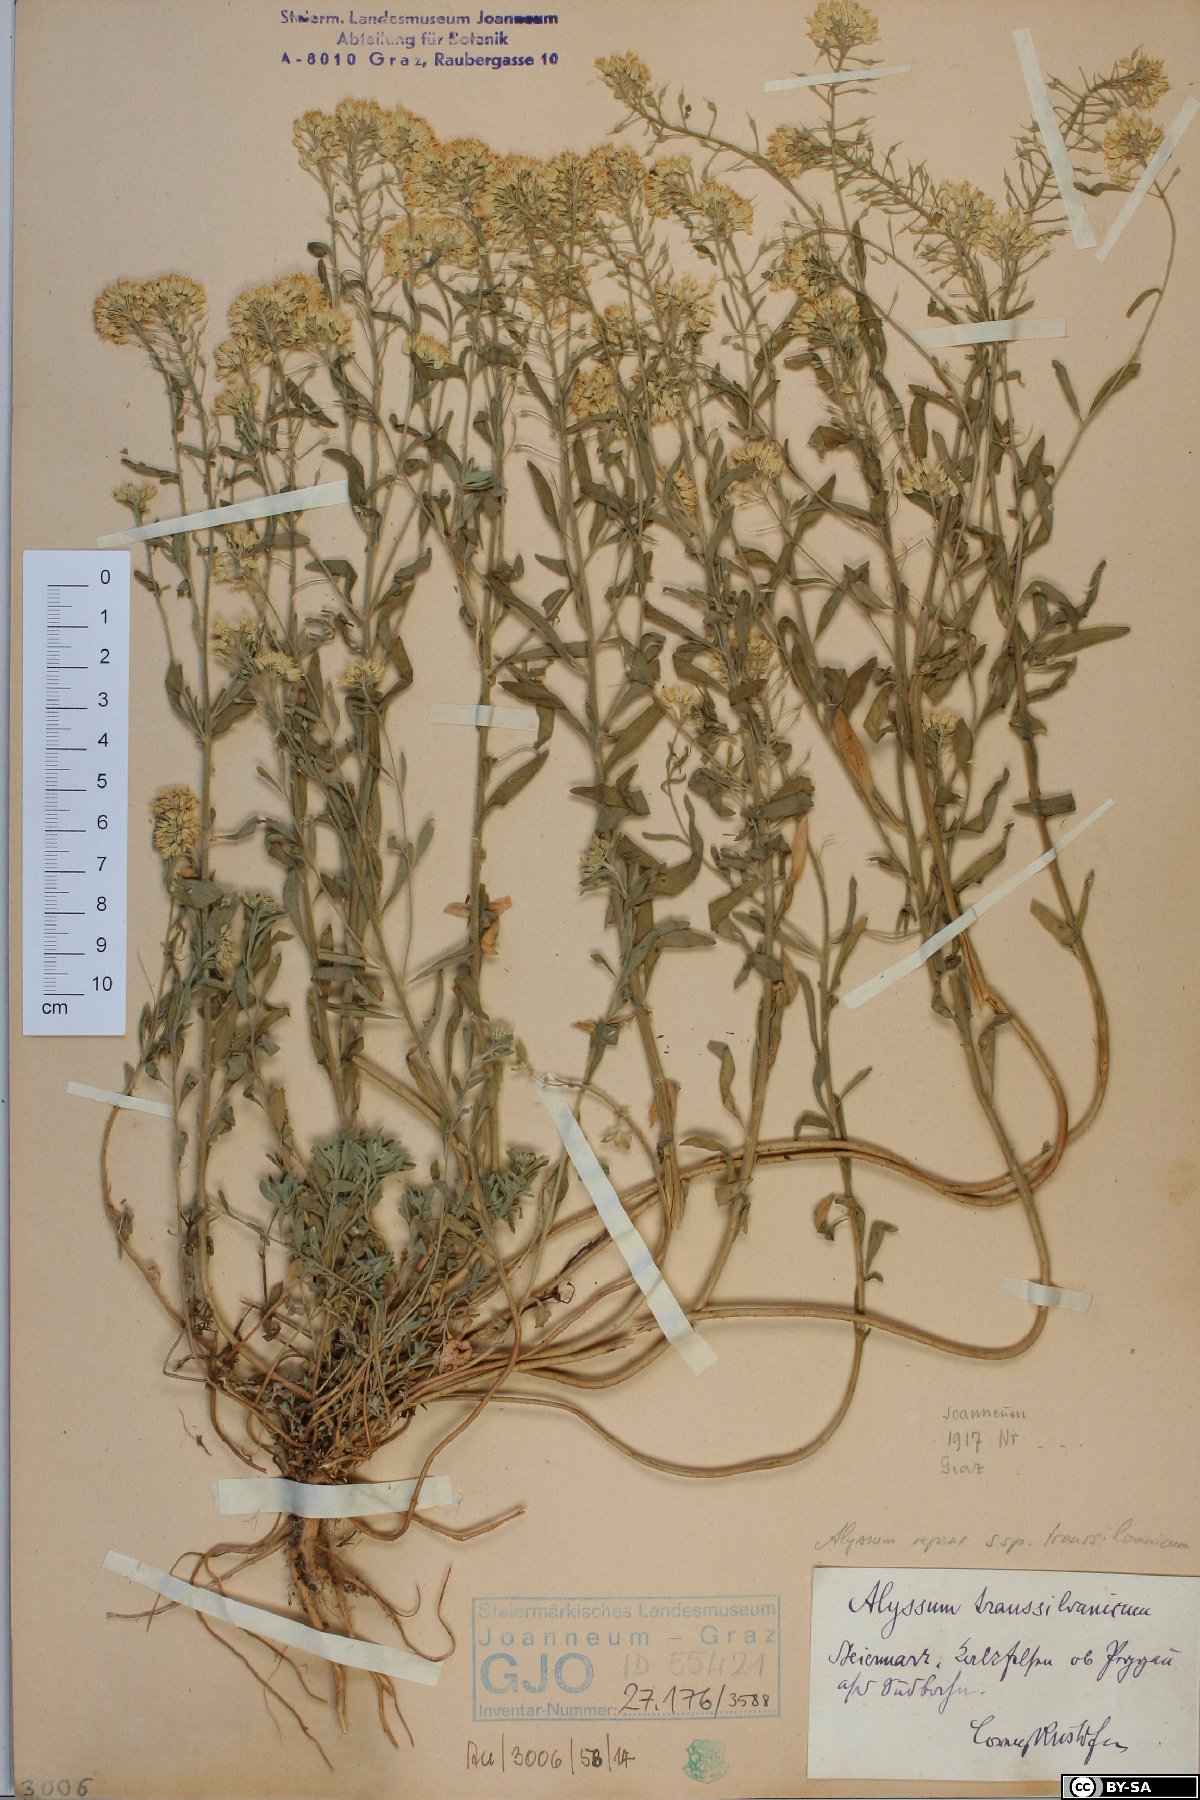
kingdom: Plantae
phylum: Tracheophyta
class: Magnoliopsida
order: Brassicales
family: Brassicaceae
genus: Alyssum
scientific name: Alyssum repens
